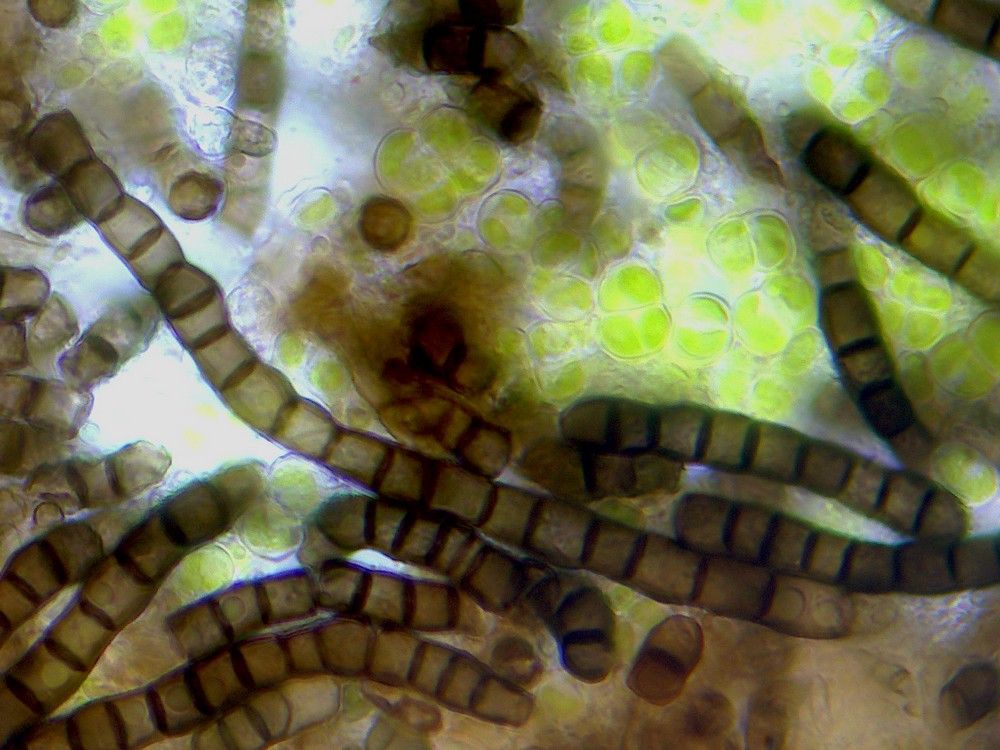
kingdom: Fungi
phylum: Ascomycota
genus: Taeniolina
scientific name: Taeniolina scripta
